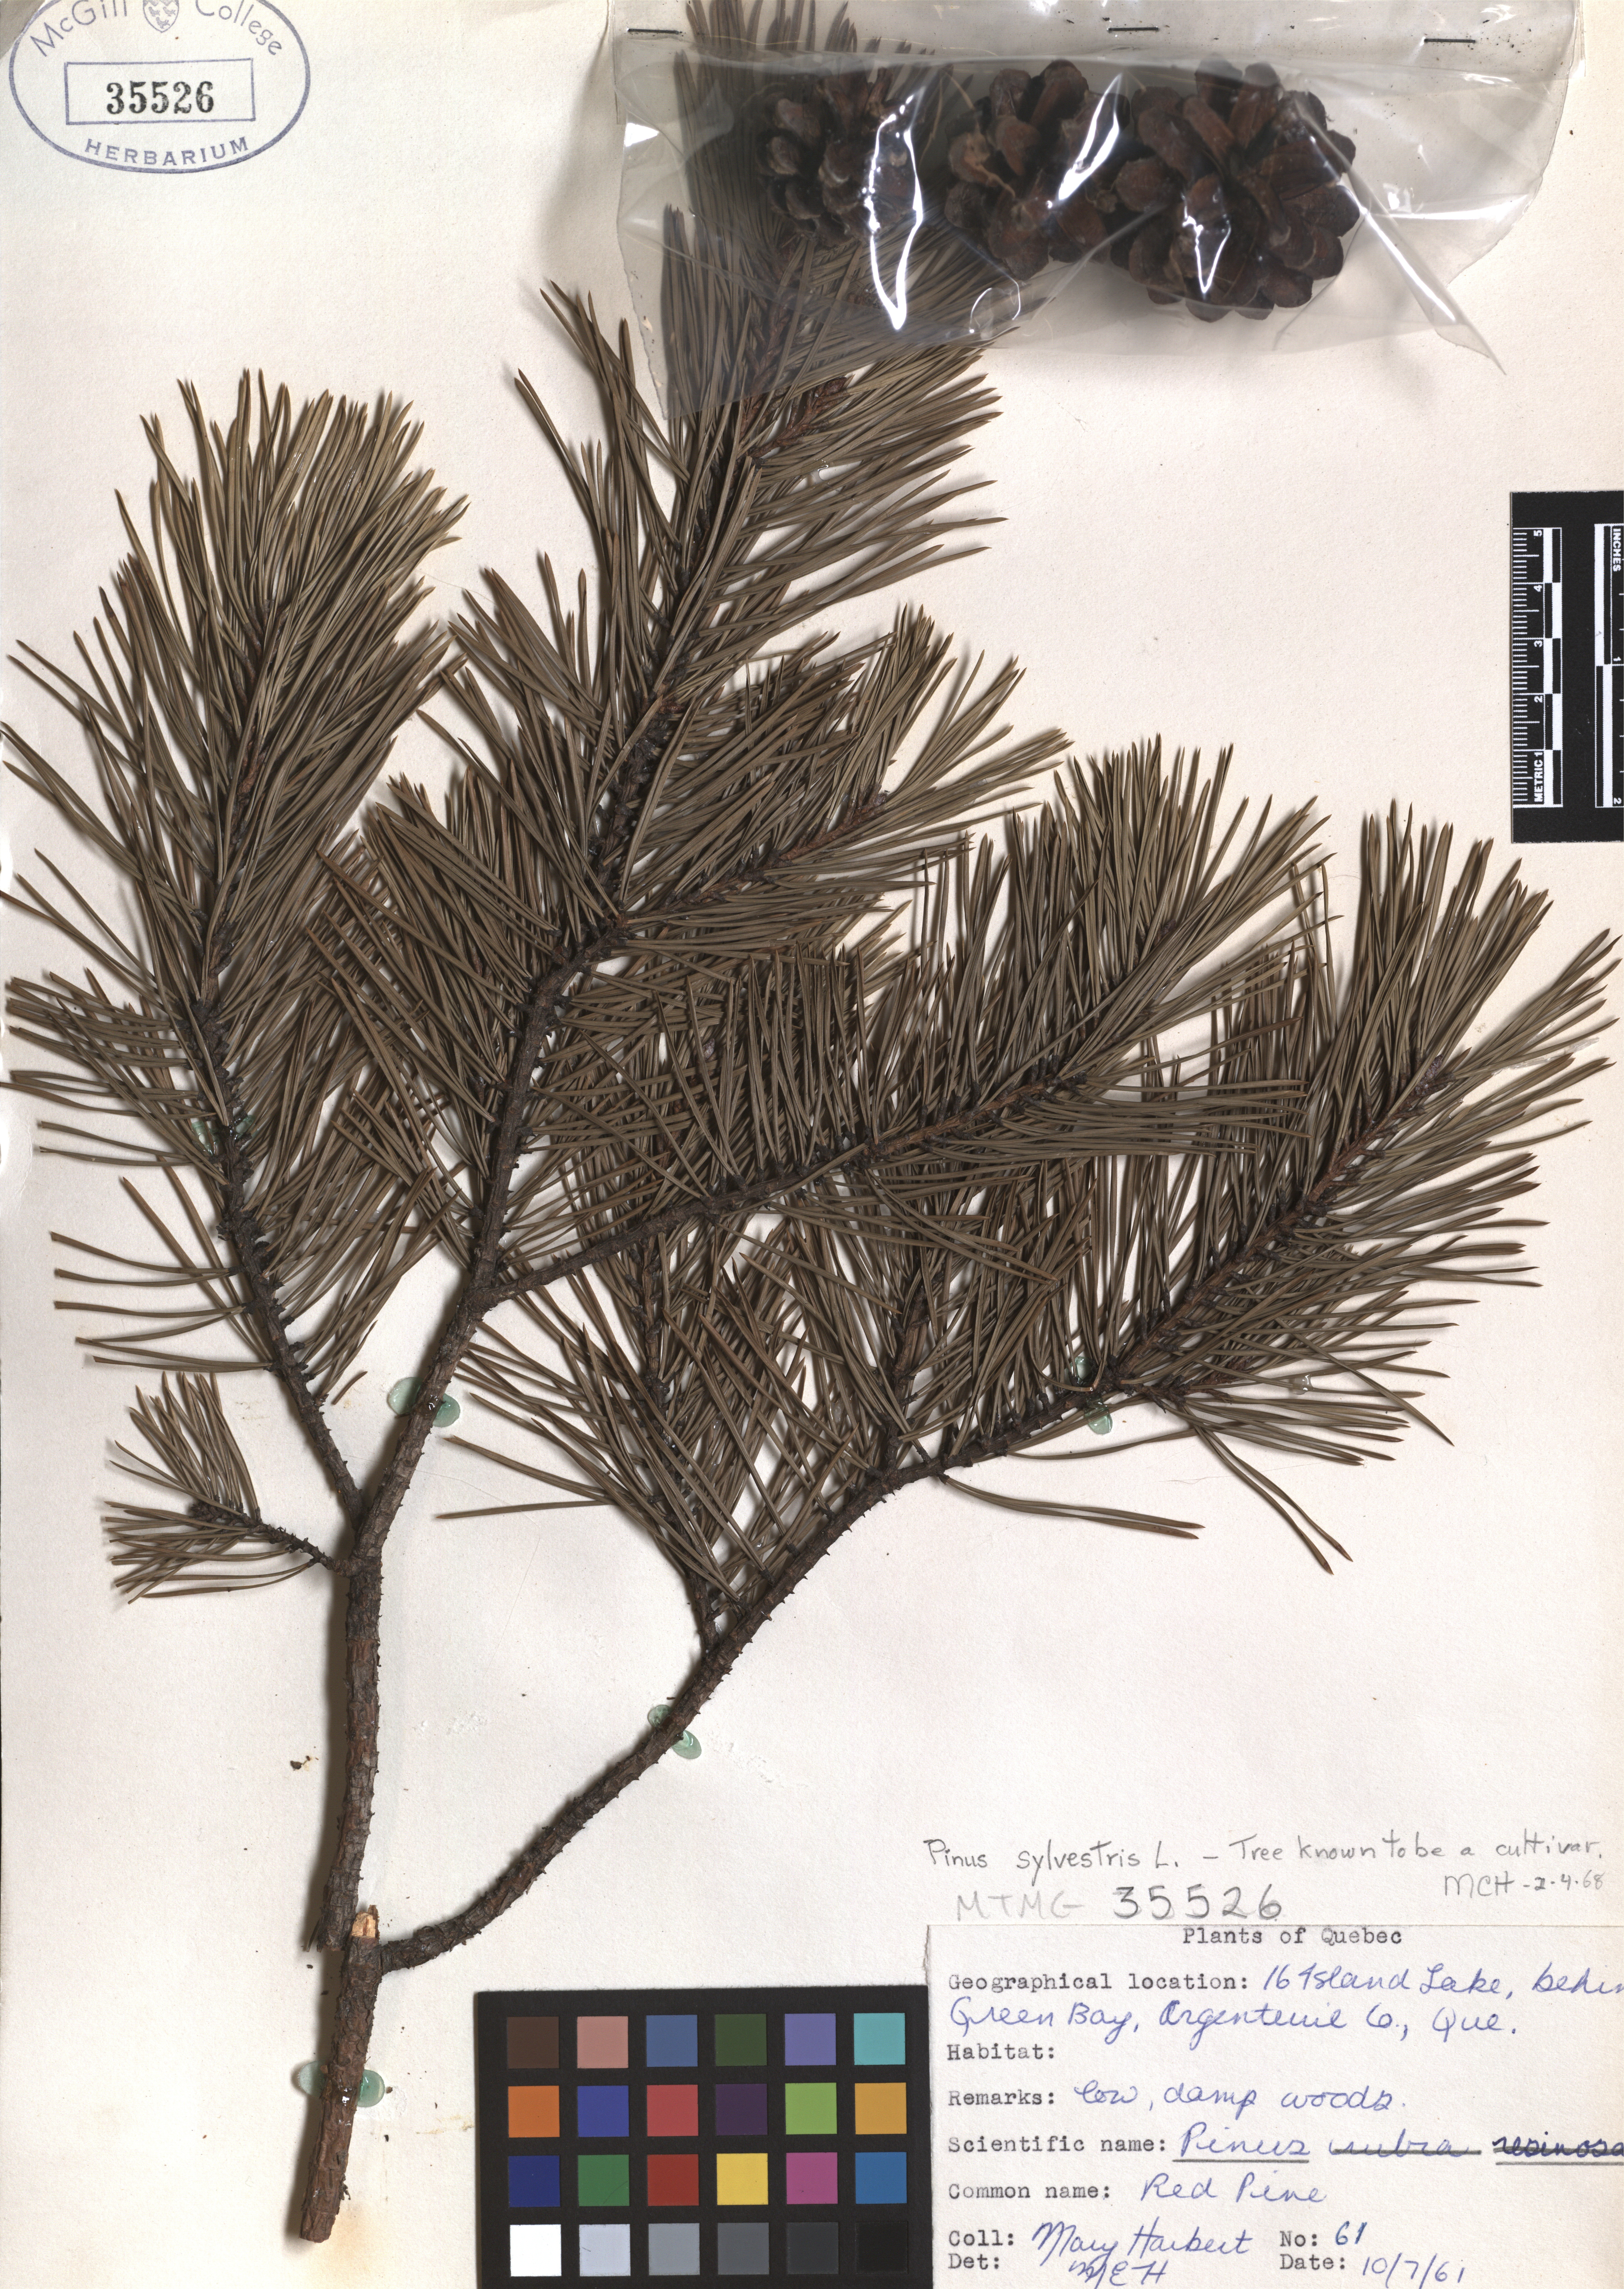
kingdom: Plantae
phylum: Tracheophyta
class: Pinopsida
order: Pinales
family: Pinaceae
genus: Pinus
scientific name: Pinus hartwegii
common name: Hartweg's pine
